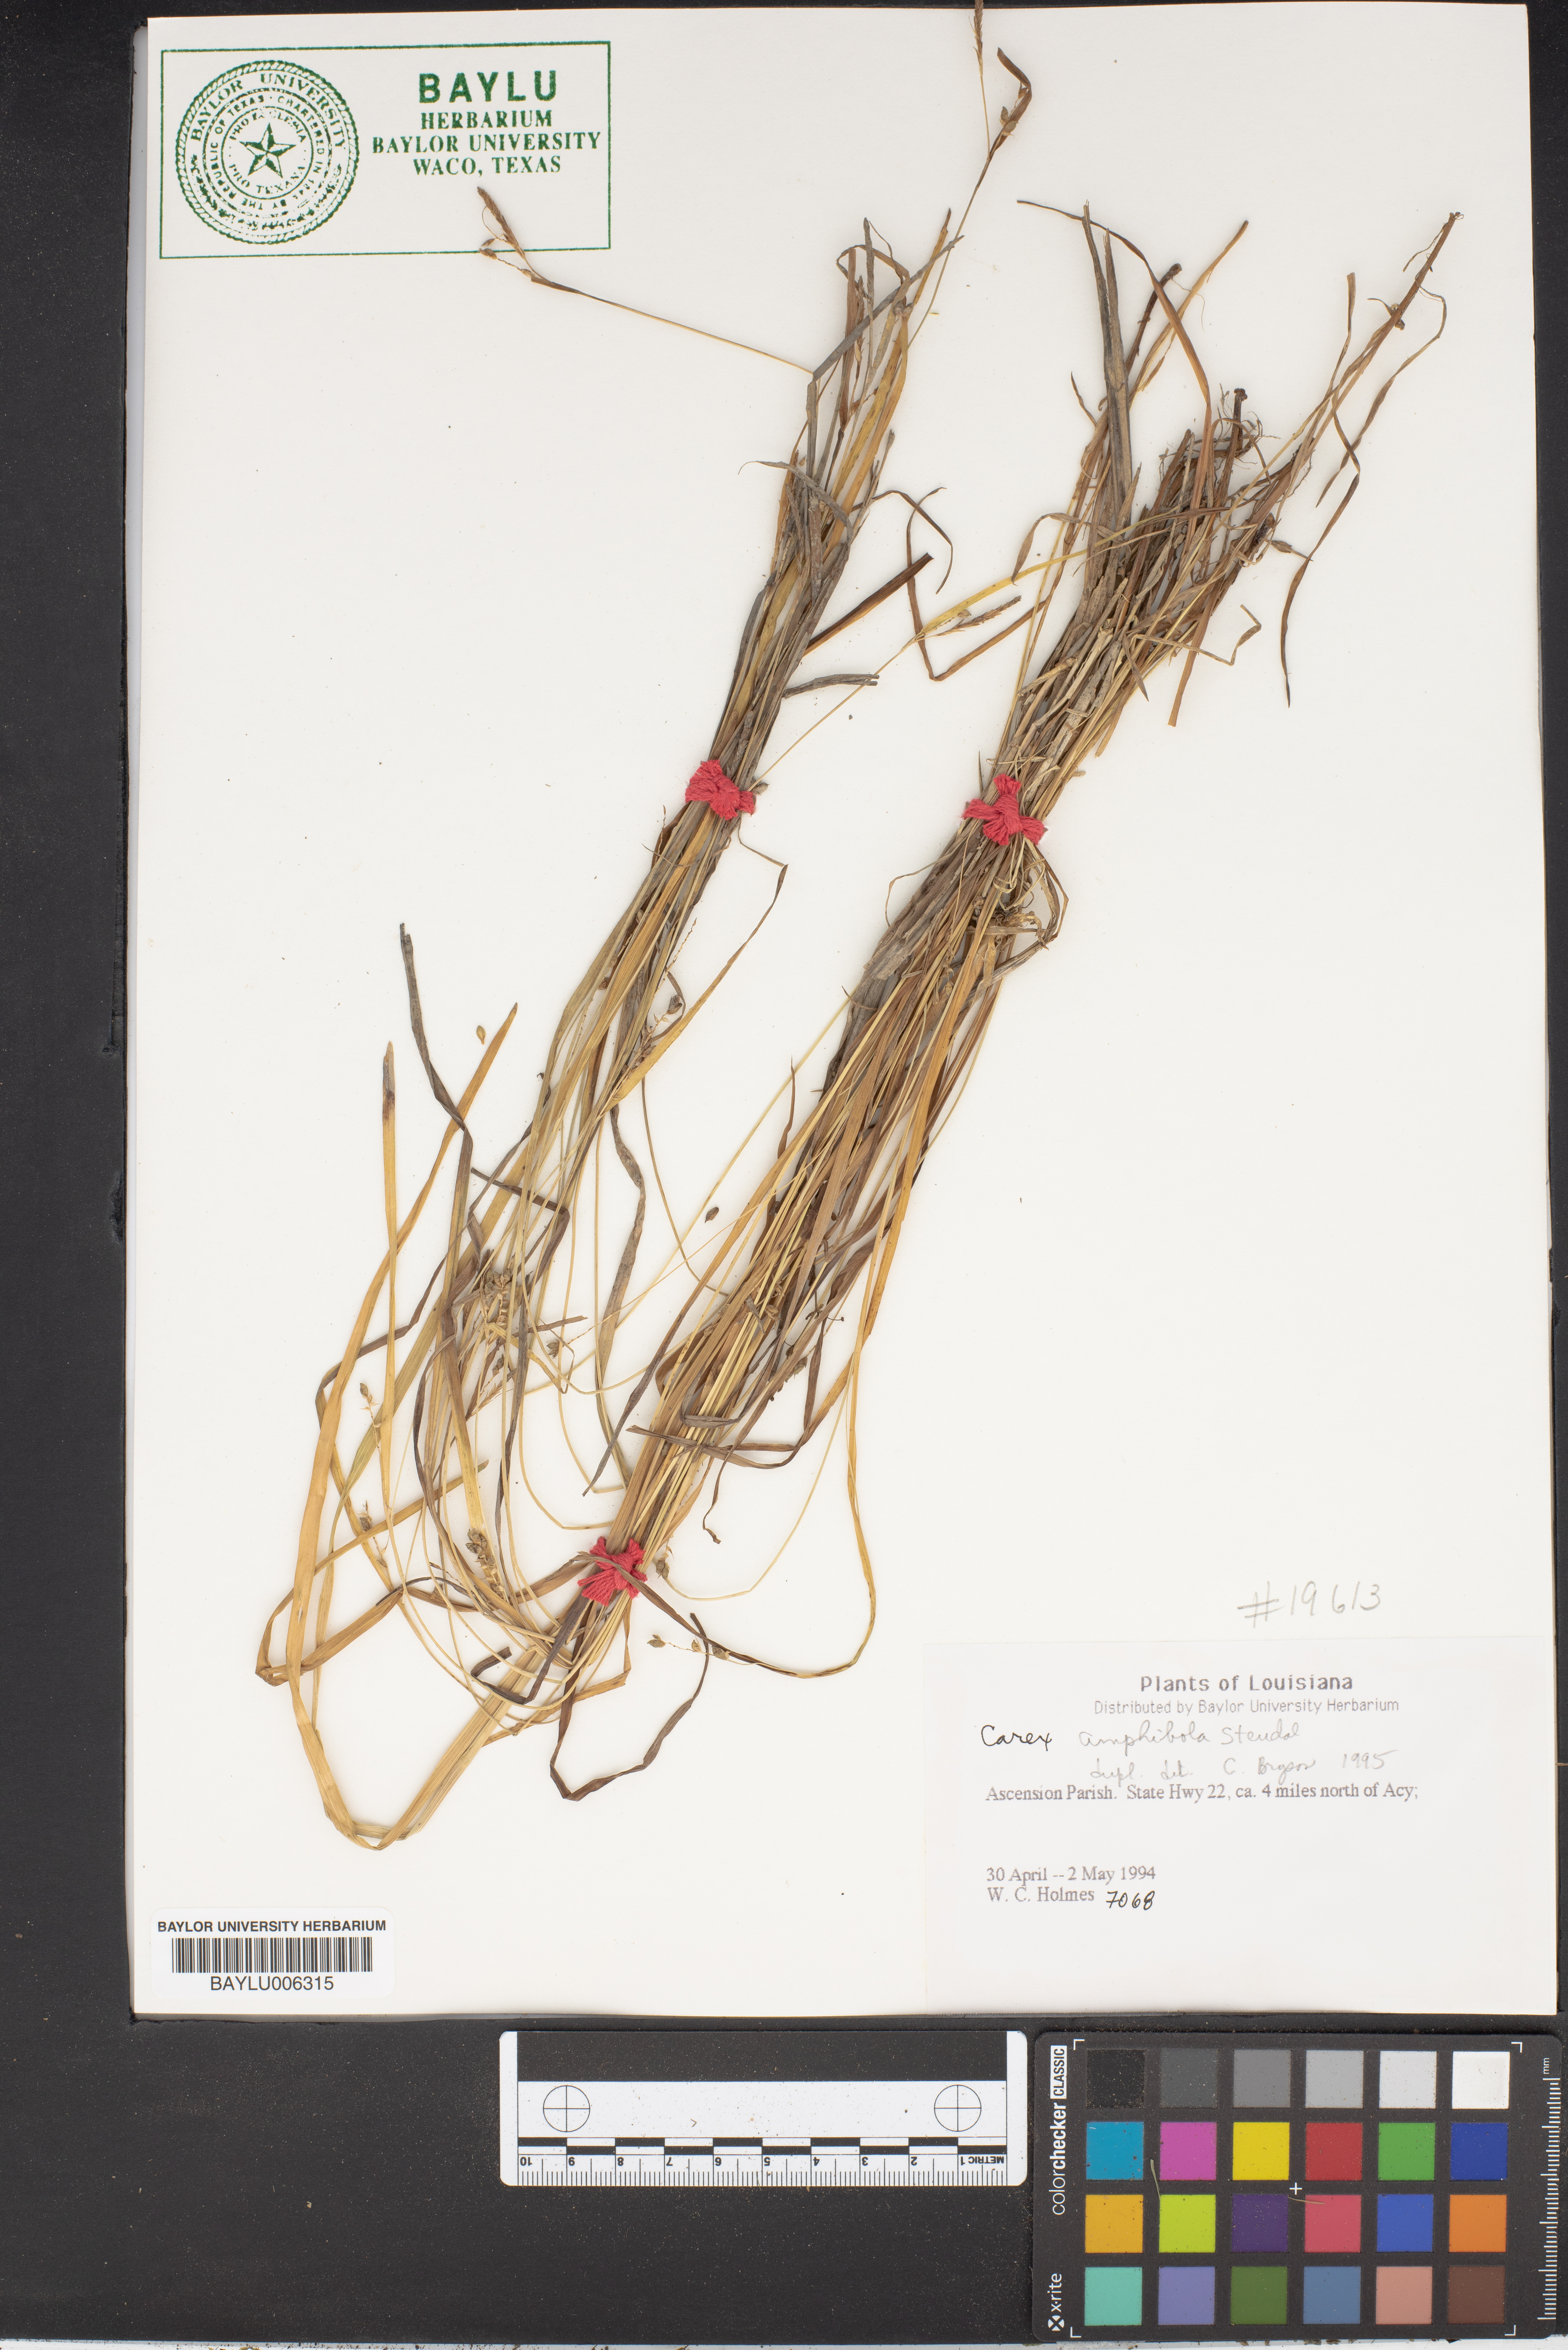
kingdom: Plantae
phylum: Tracheophyta
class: Liliopsida
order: Poales
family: Cyperaceae
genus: Carex
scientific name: Carex amphibola
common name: Amphibious sedge
